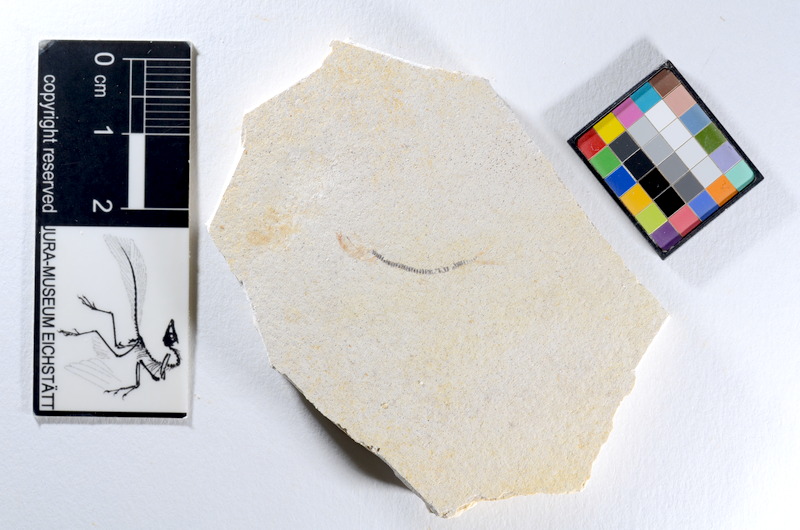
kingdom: Animalia
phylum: Chordata
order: Salmoniformes
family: Orthogonikleithridae
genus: Orthogonikleithrus
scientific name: Orthogonikleithrus hoelli
